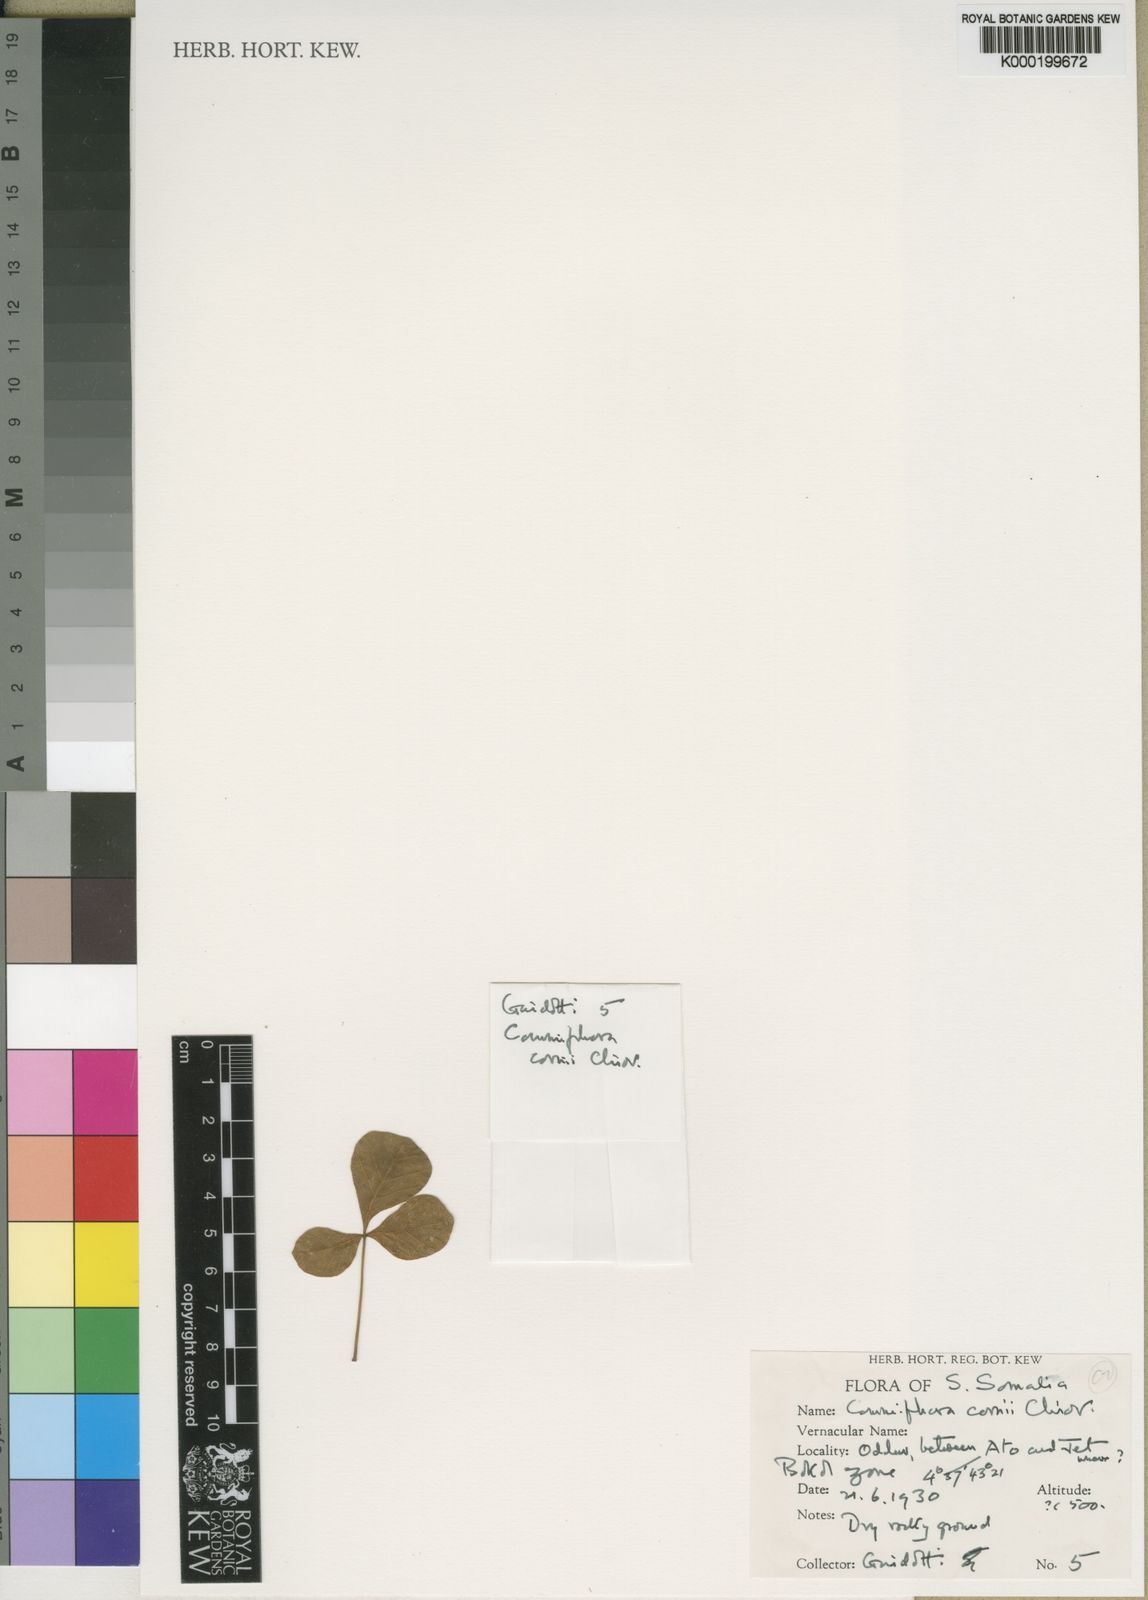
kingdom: Plantae
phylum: Tracheophyta
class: Magnoliopsida
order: Sapindales
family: Burseraceae
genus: Commiphora
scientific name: Commiphora cyclophylla
